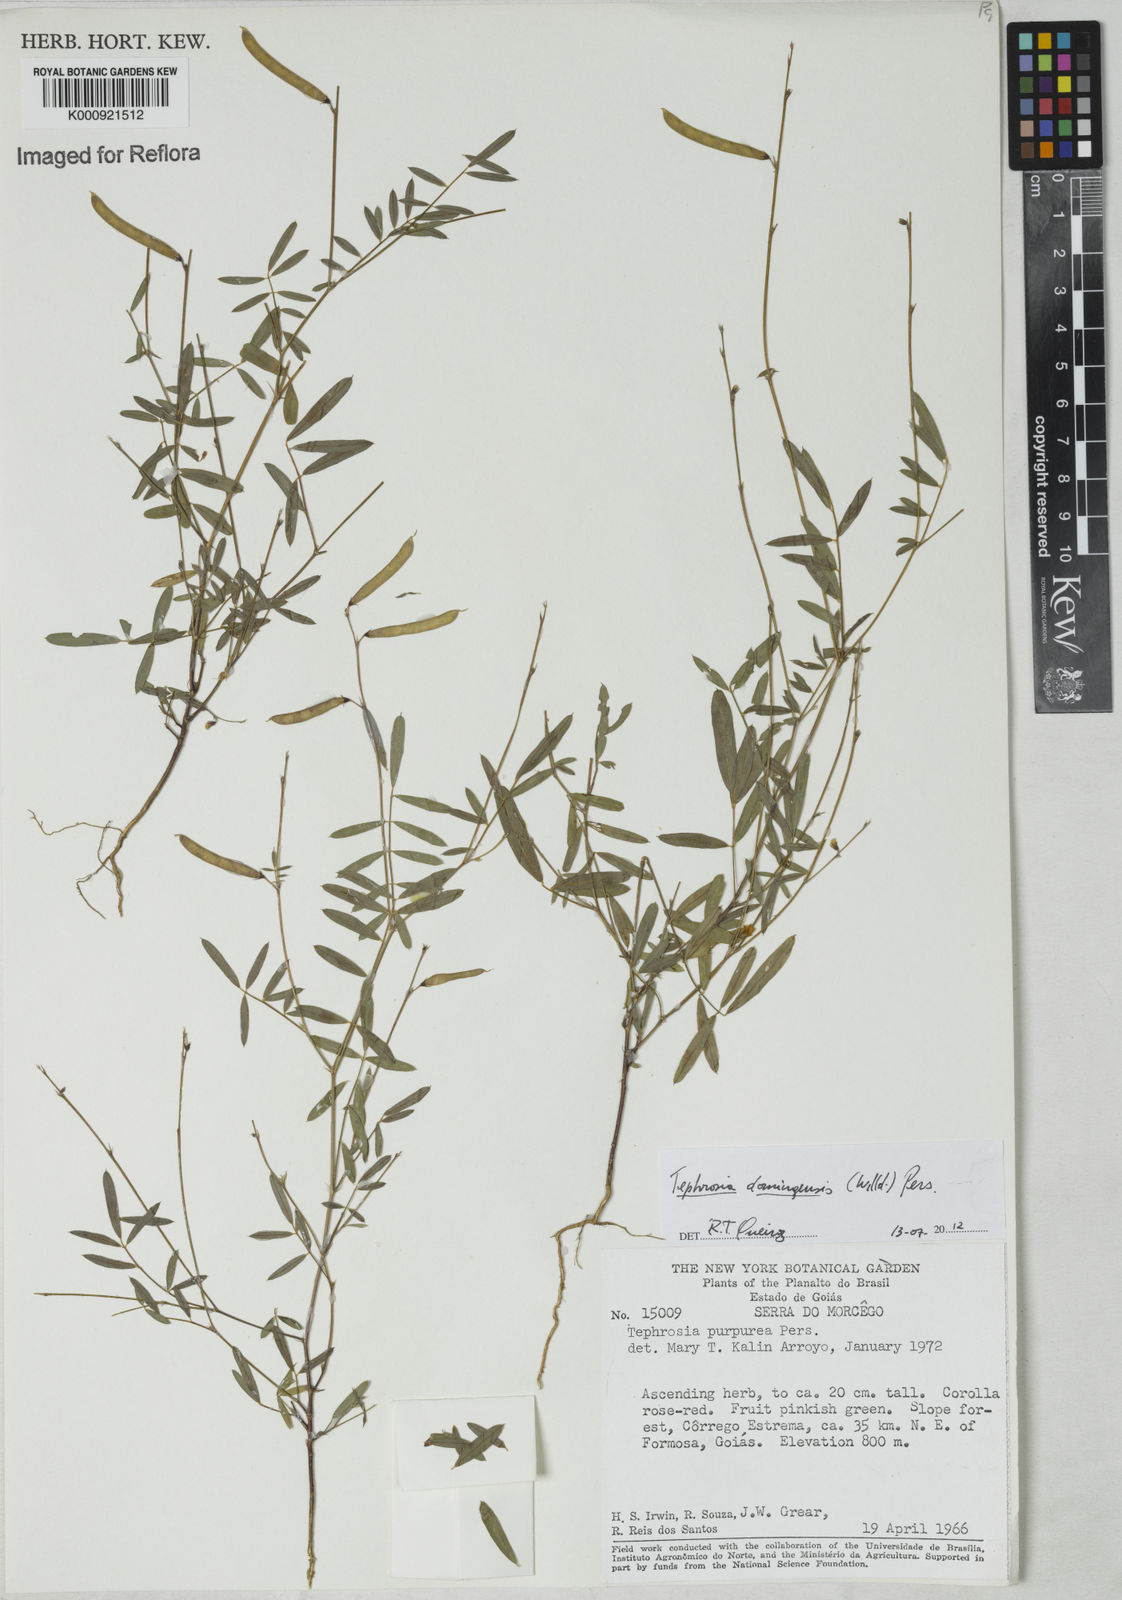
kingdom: Plantae
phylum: Tracheophyta
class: Magnoliopsida
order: Fabales
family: Fabaceae
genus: Tephrosia
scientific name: Tephrosia domingensis
